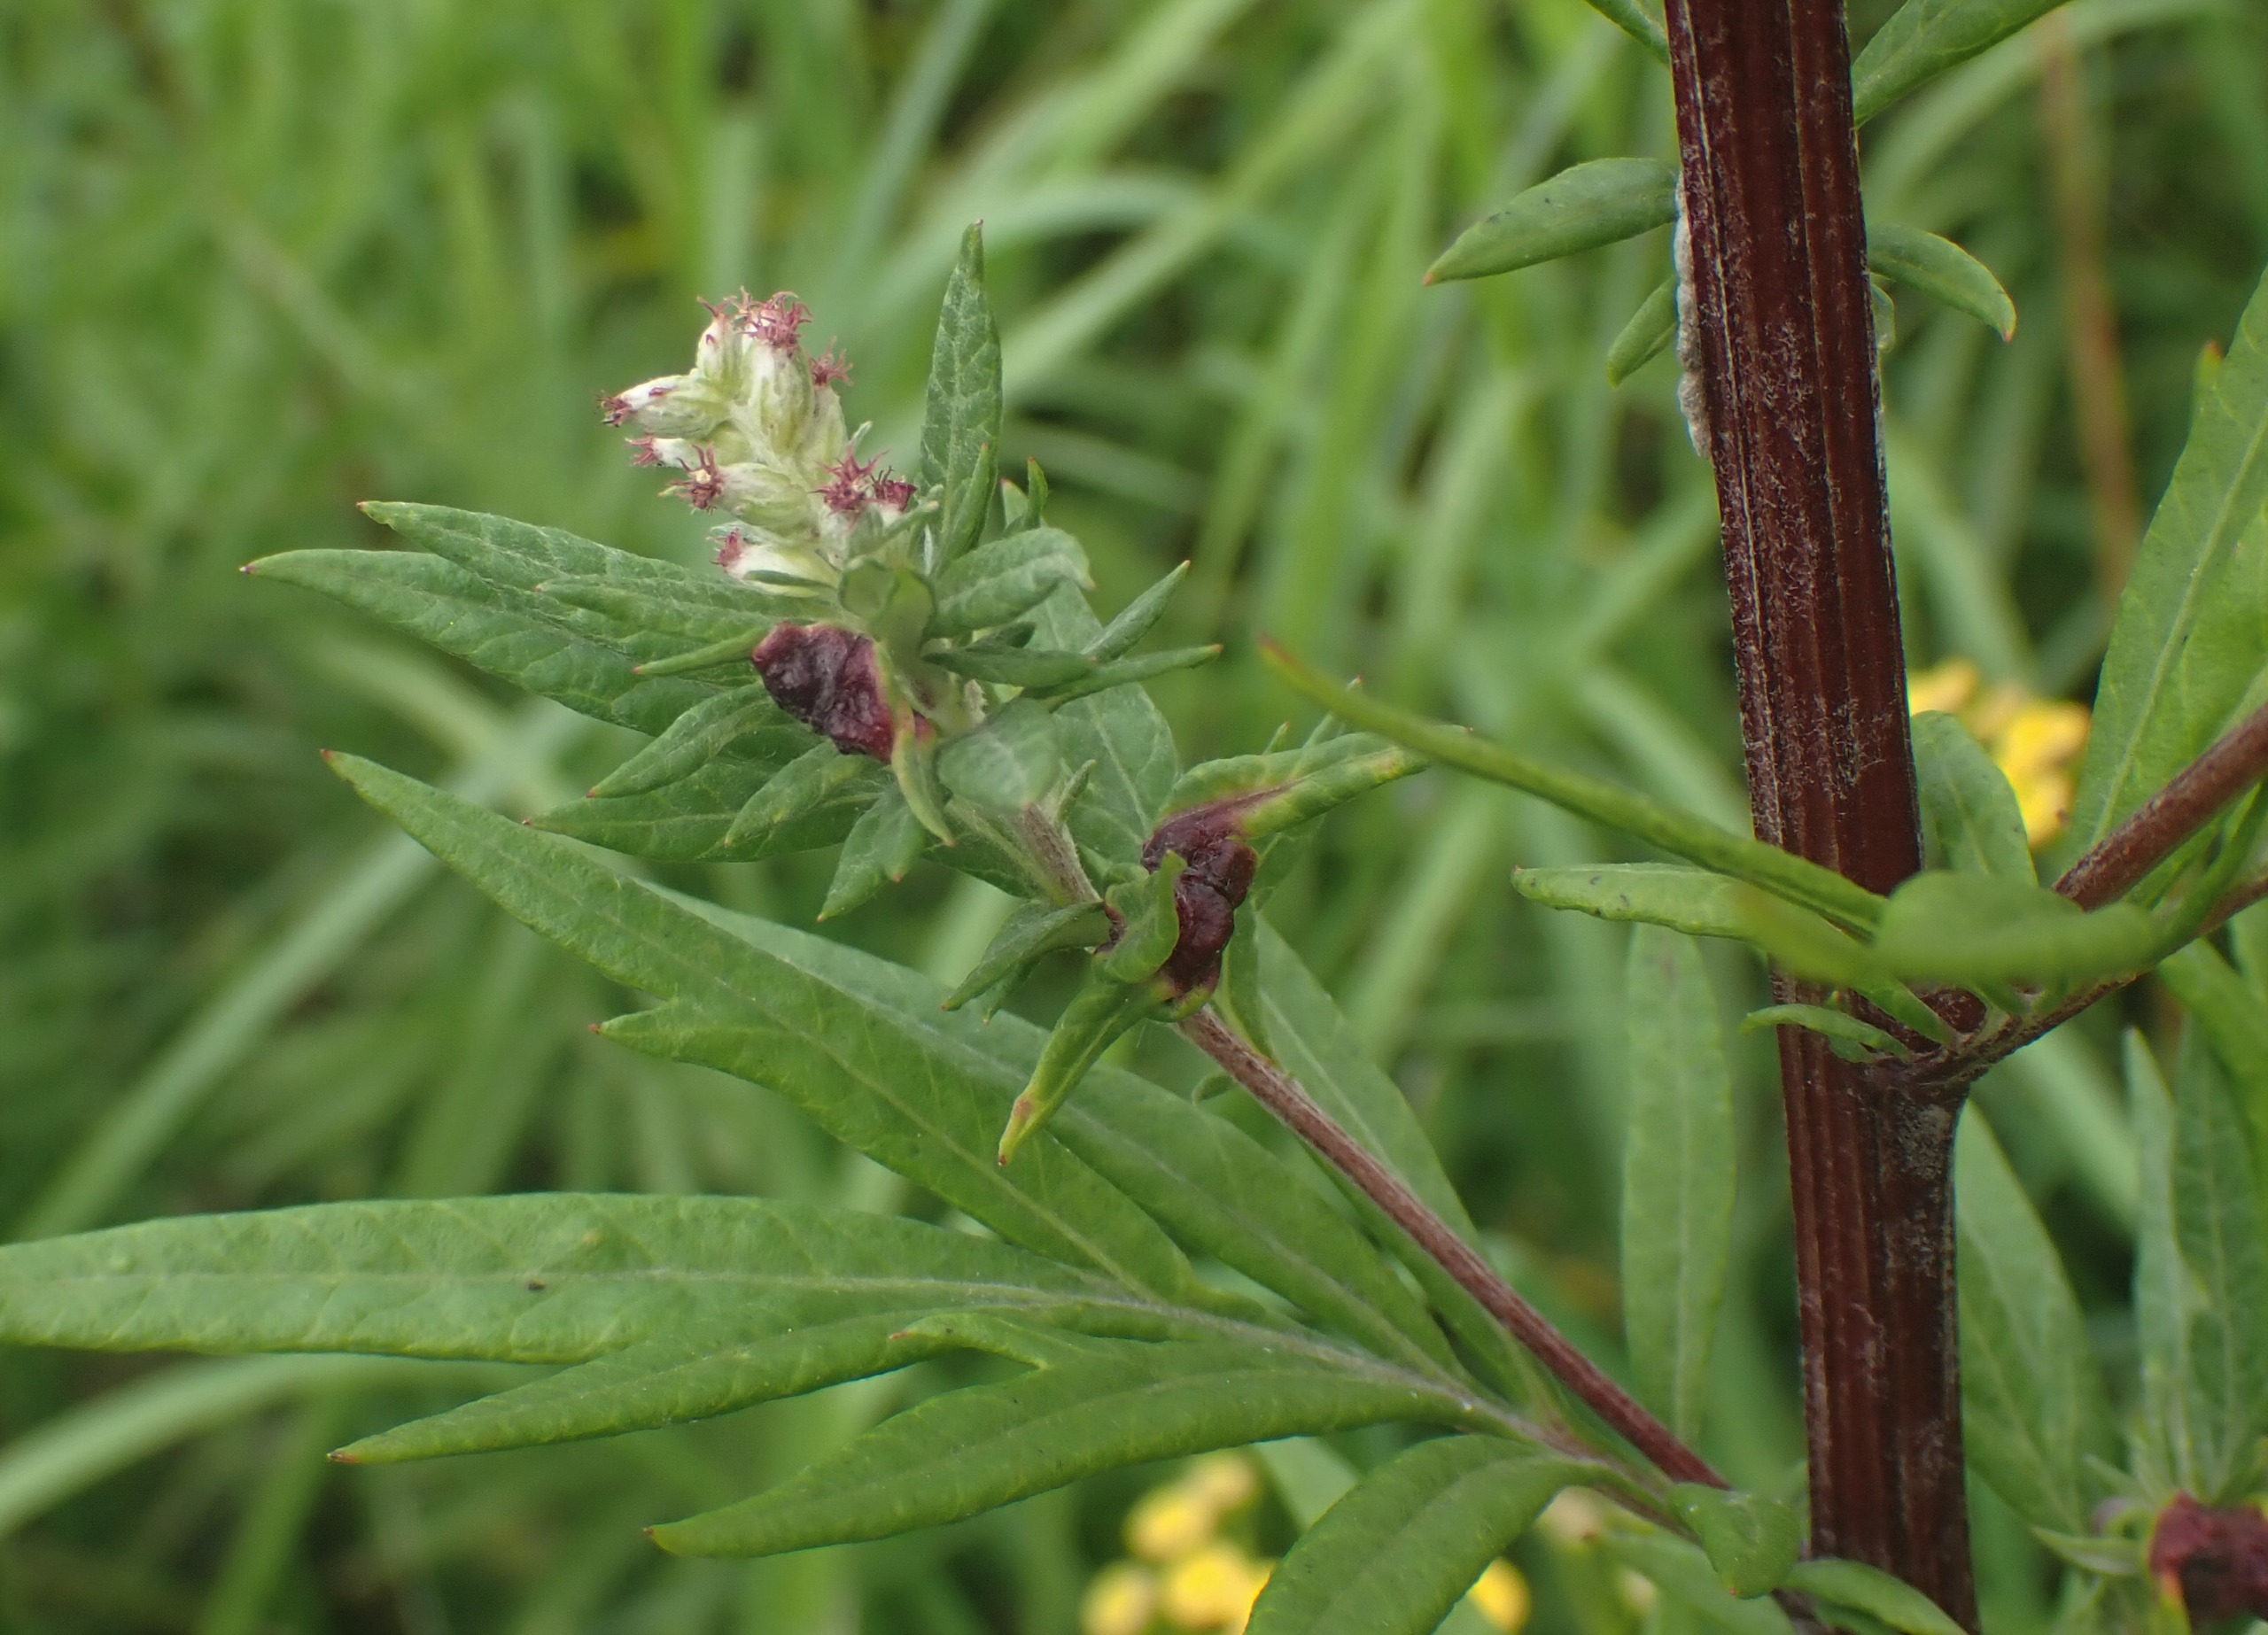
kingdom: Animalia
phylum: Arthropoda
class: Insecta
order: Hemiptera
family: Aphididae
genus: Cryptosiphum
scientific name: Cryptosiphum artemisiae
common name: Bynkegallelus
